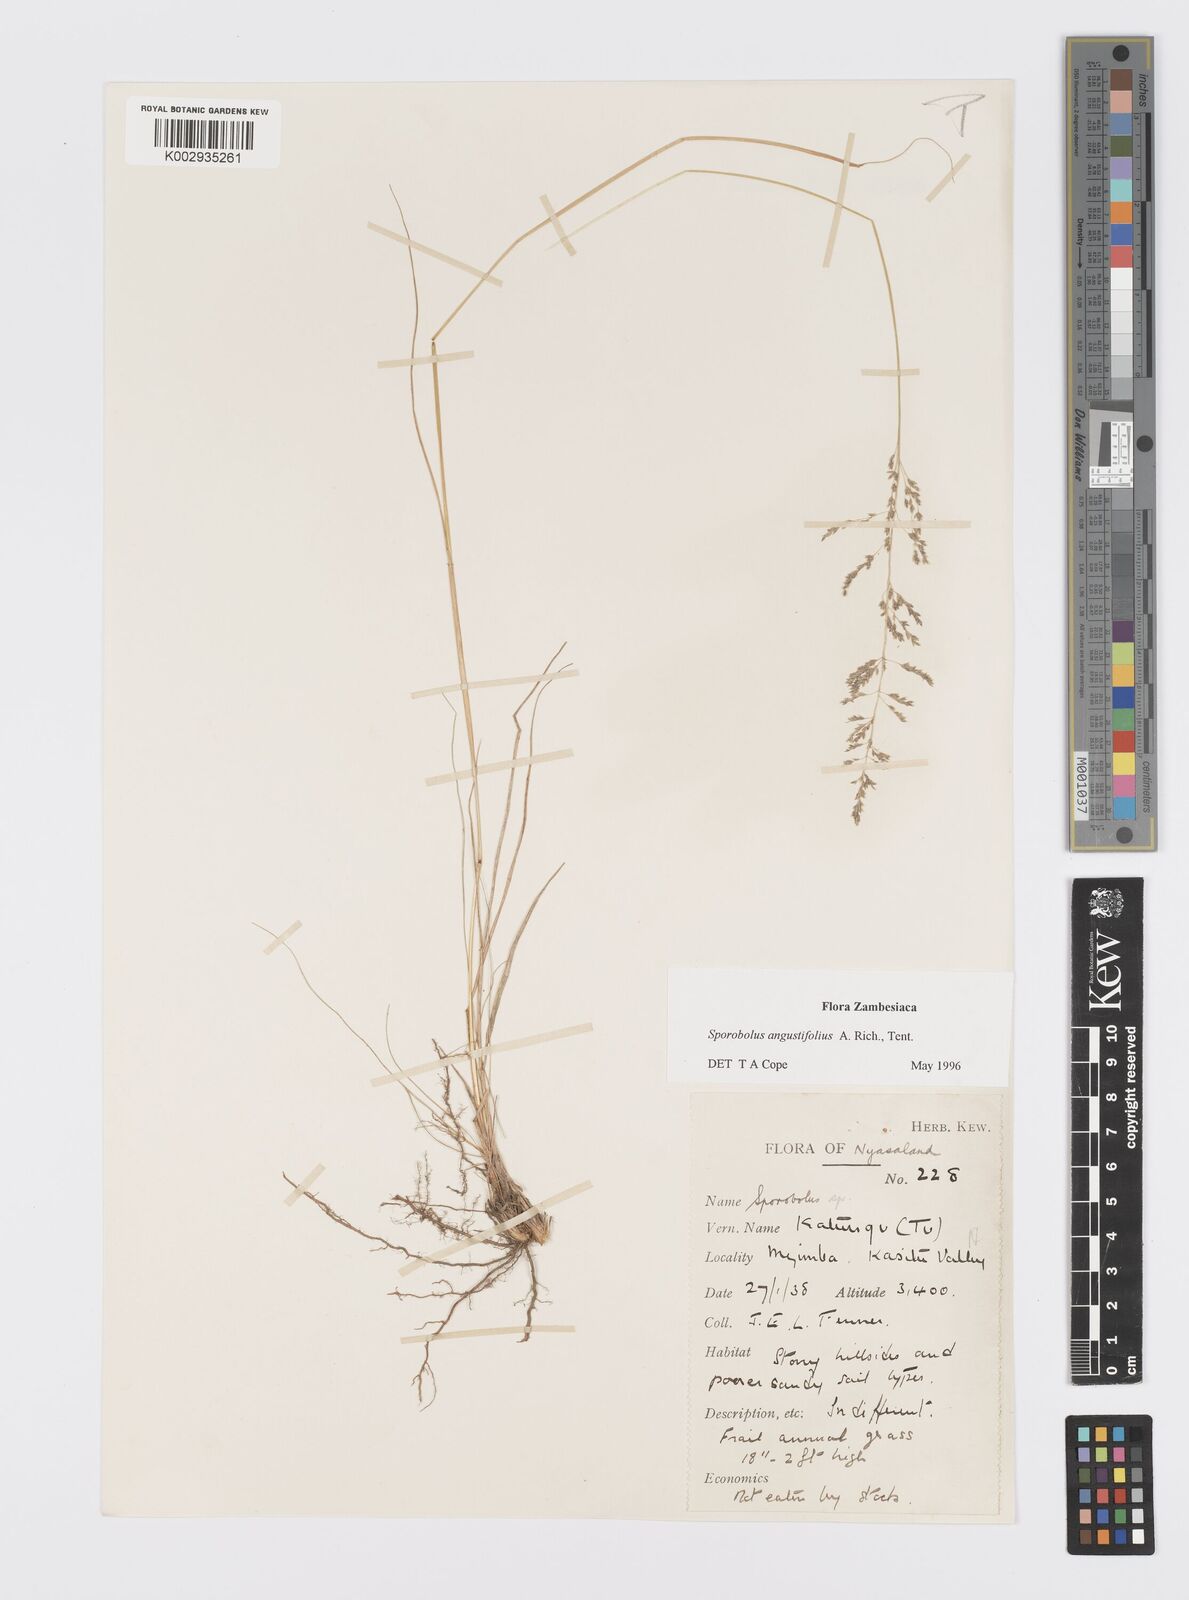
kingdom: Plantae
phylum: Tracheophyta
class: Liliopsida
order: Poales
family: Poaceae
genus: Sporobolus
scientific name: Sporobolus angustifolius
